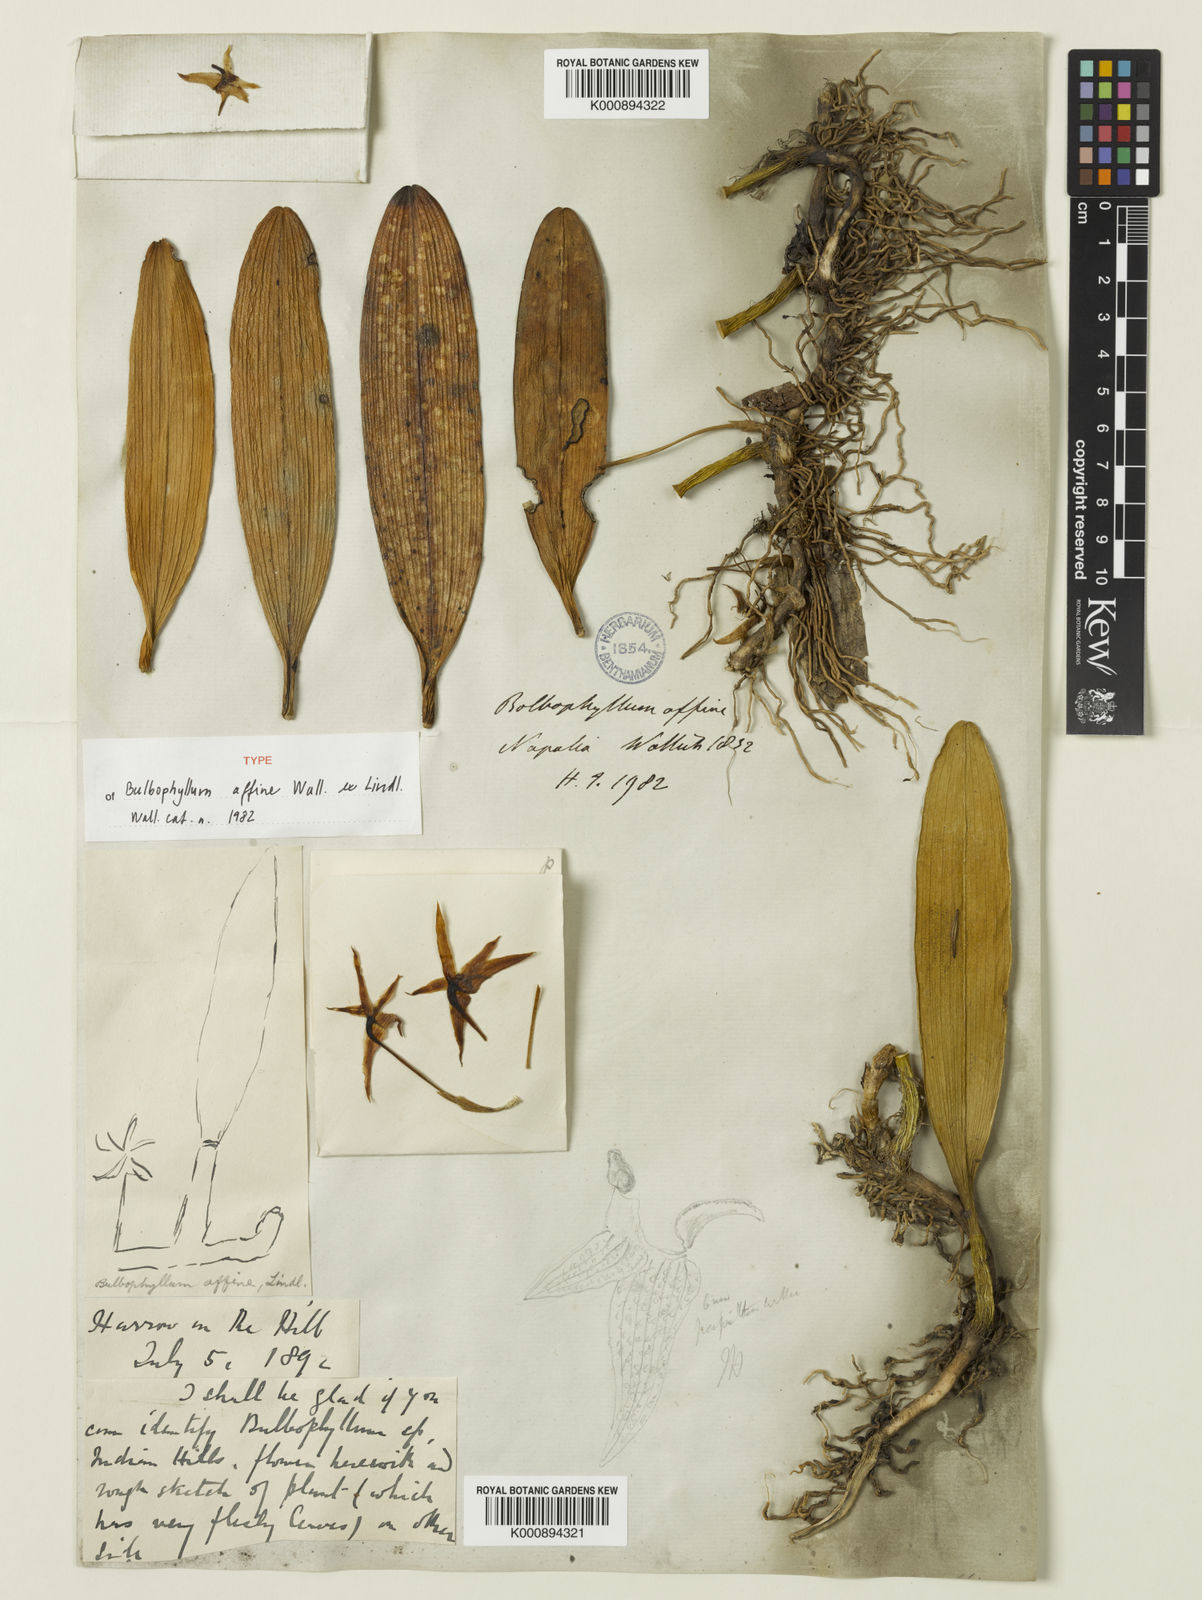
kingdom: Plantae
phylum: Tracheophyta
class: Liliopsida
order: Asparagales
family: Orchidaceae
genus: Bulbophyllum
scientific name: Bulbophyllum affine
